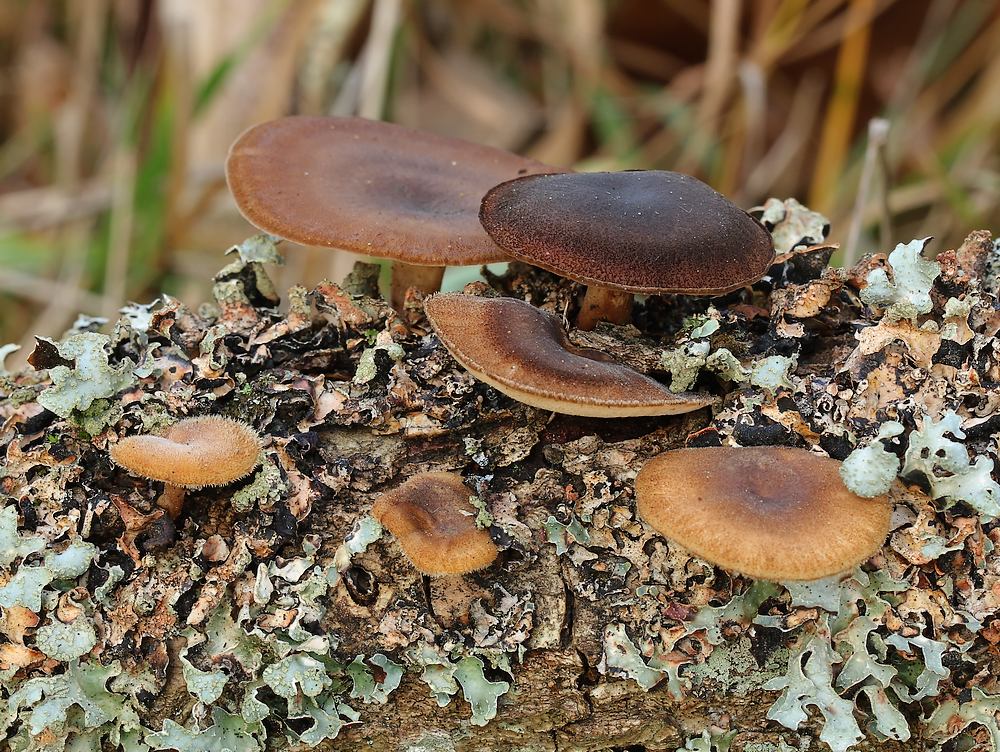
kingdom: Fungi
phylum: Basidiomycota
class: Agaricomycetes
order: Polyporales
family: Polyporaceae
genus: Lentinus
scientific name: Lentinus brumalis
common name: vinter-stilkporesvamp
